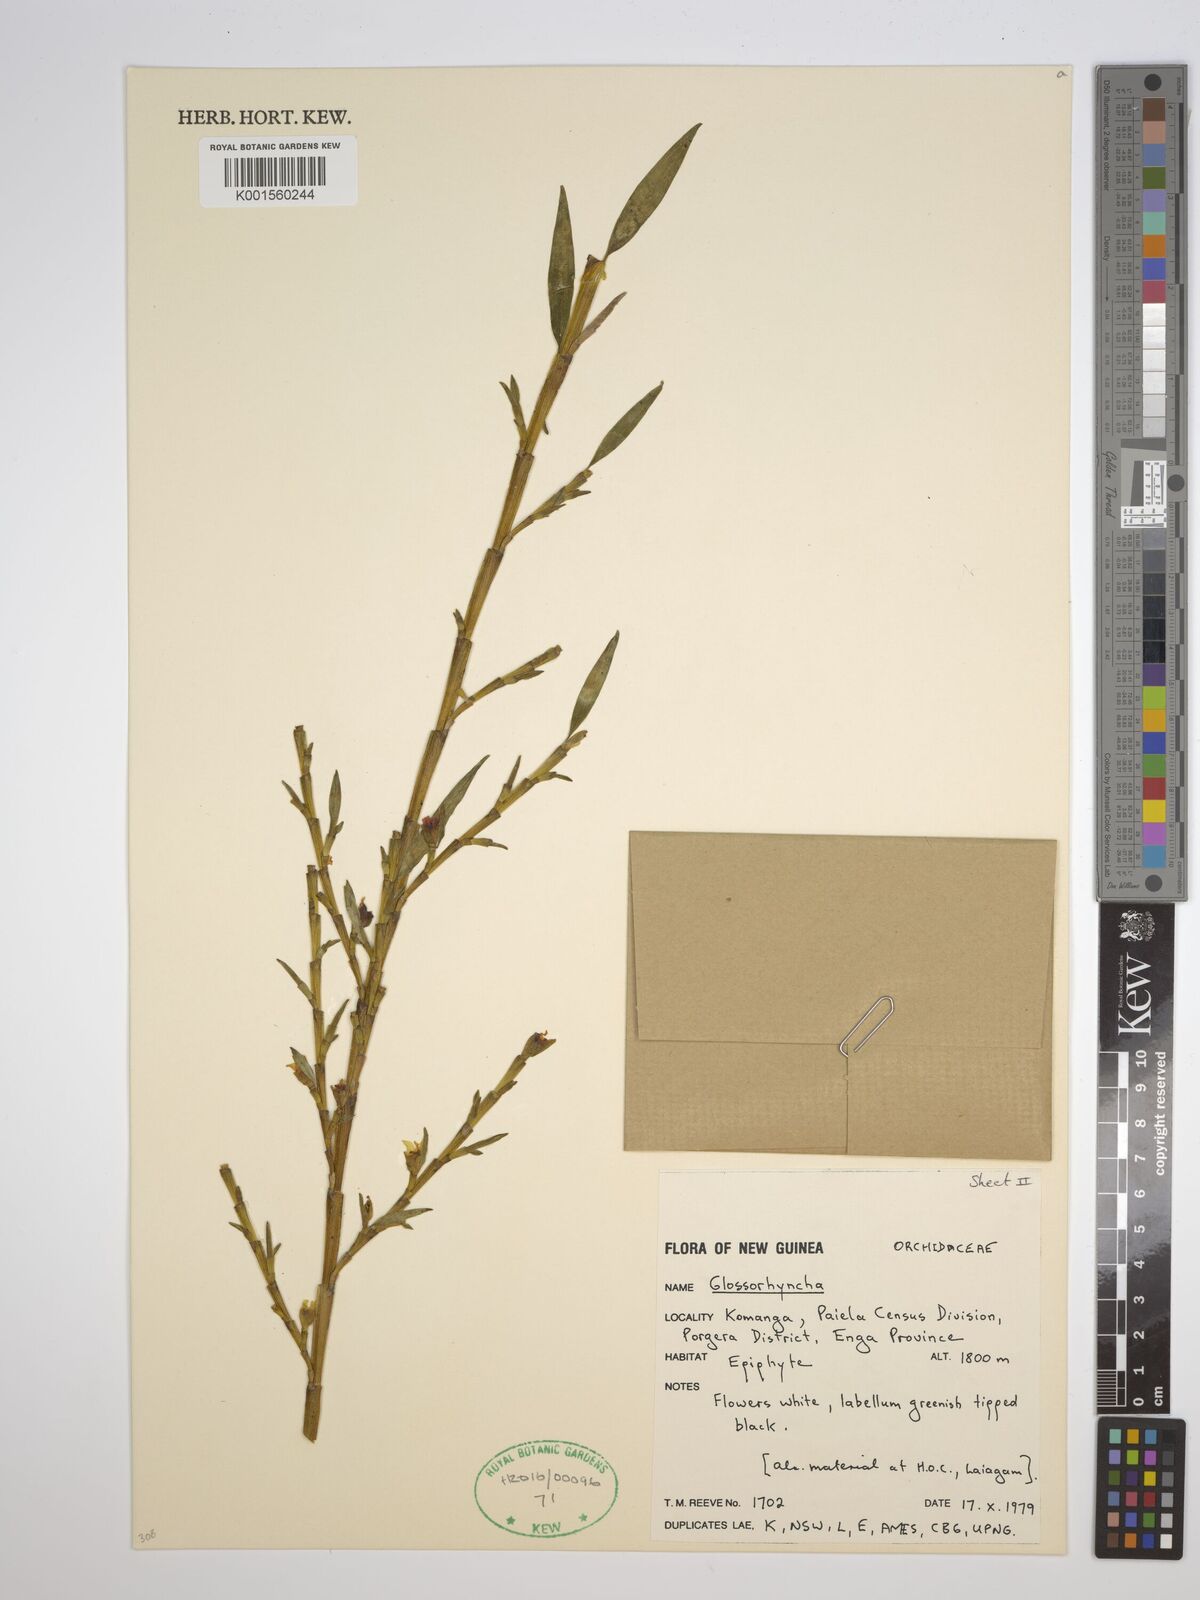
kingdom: Plantae
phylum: Tracheophyta
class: Liliopsida
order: Asparagales
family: Orchidaceae
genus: Glomera
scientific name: Glomera
